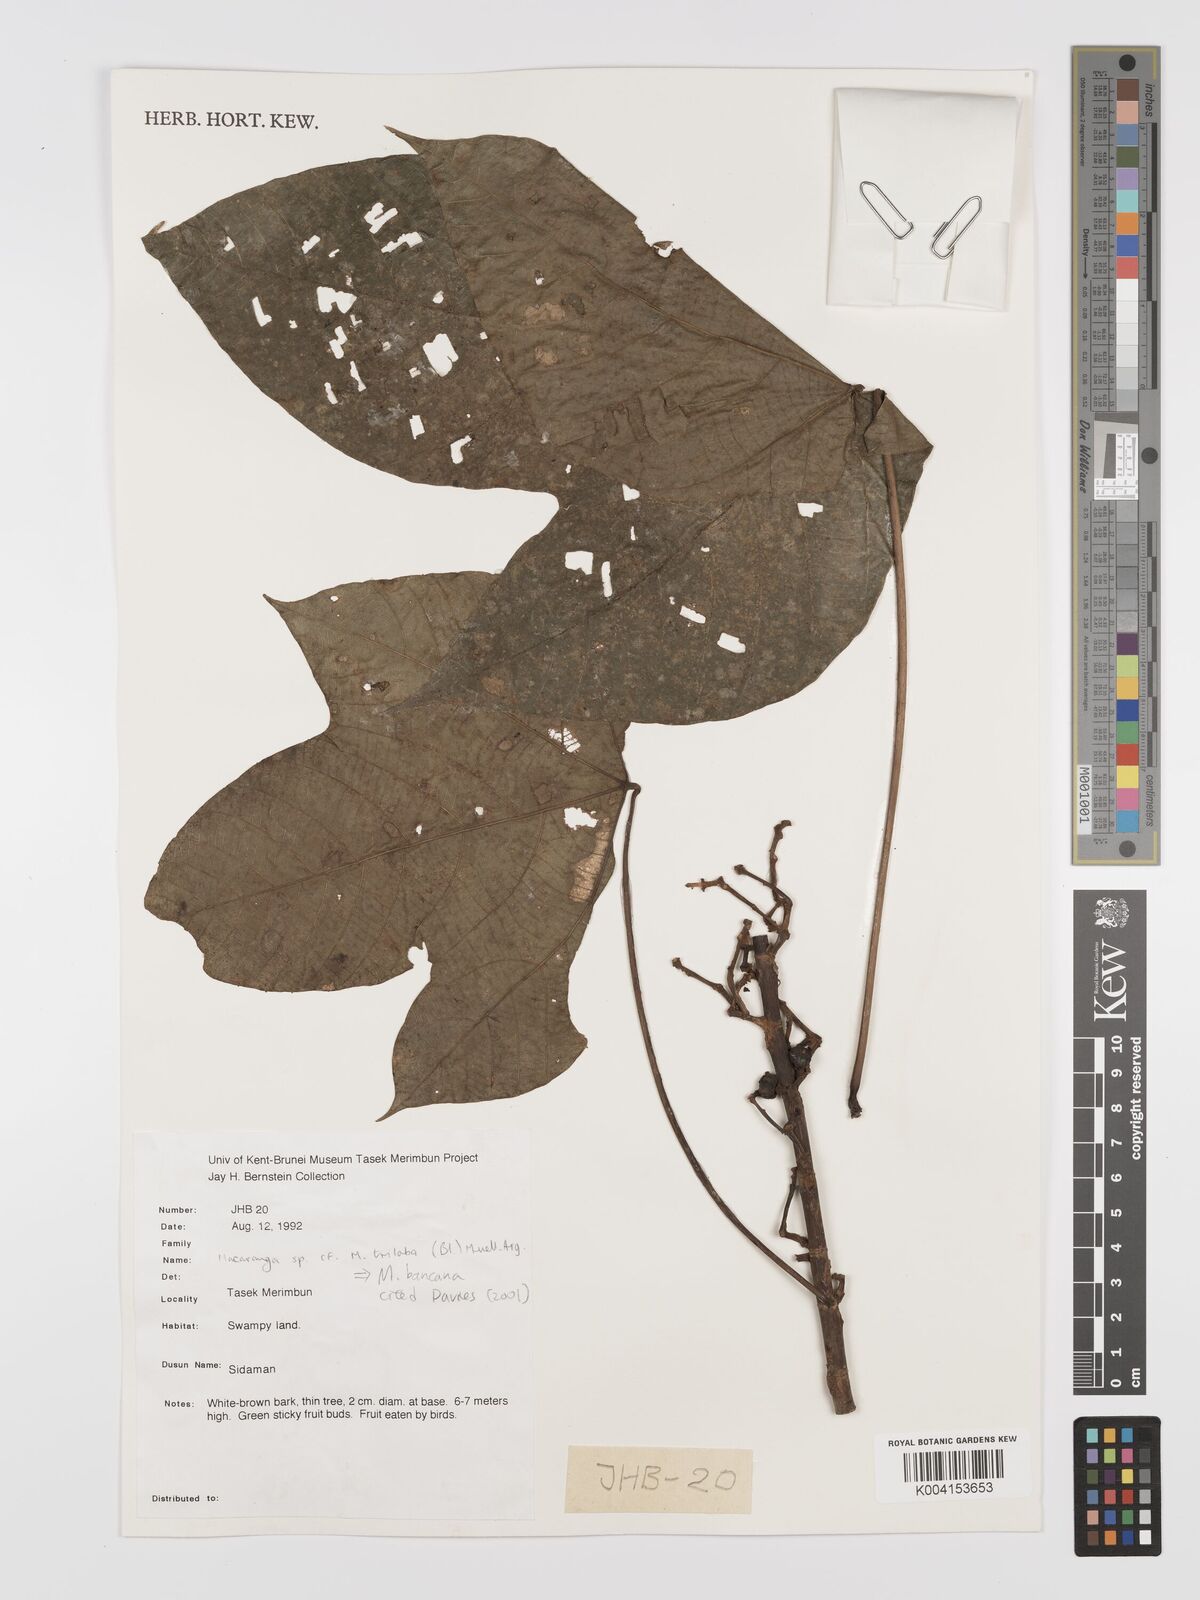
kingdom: Plantae
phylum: Tracheophyta
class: Magnoliopsida
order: Malpighiales
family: Euphorbiaceae
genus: Macaranga
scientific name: Macaranga triloba
